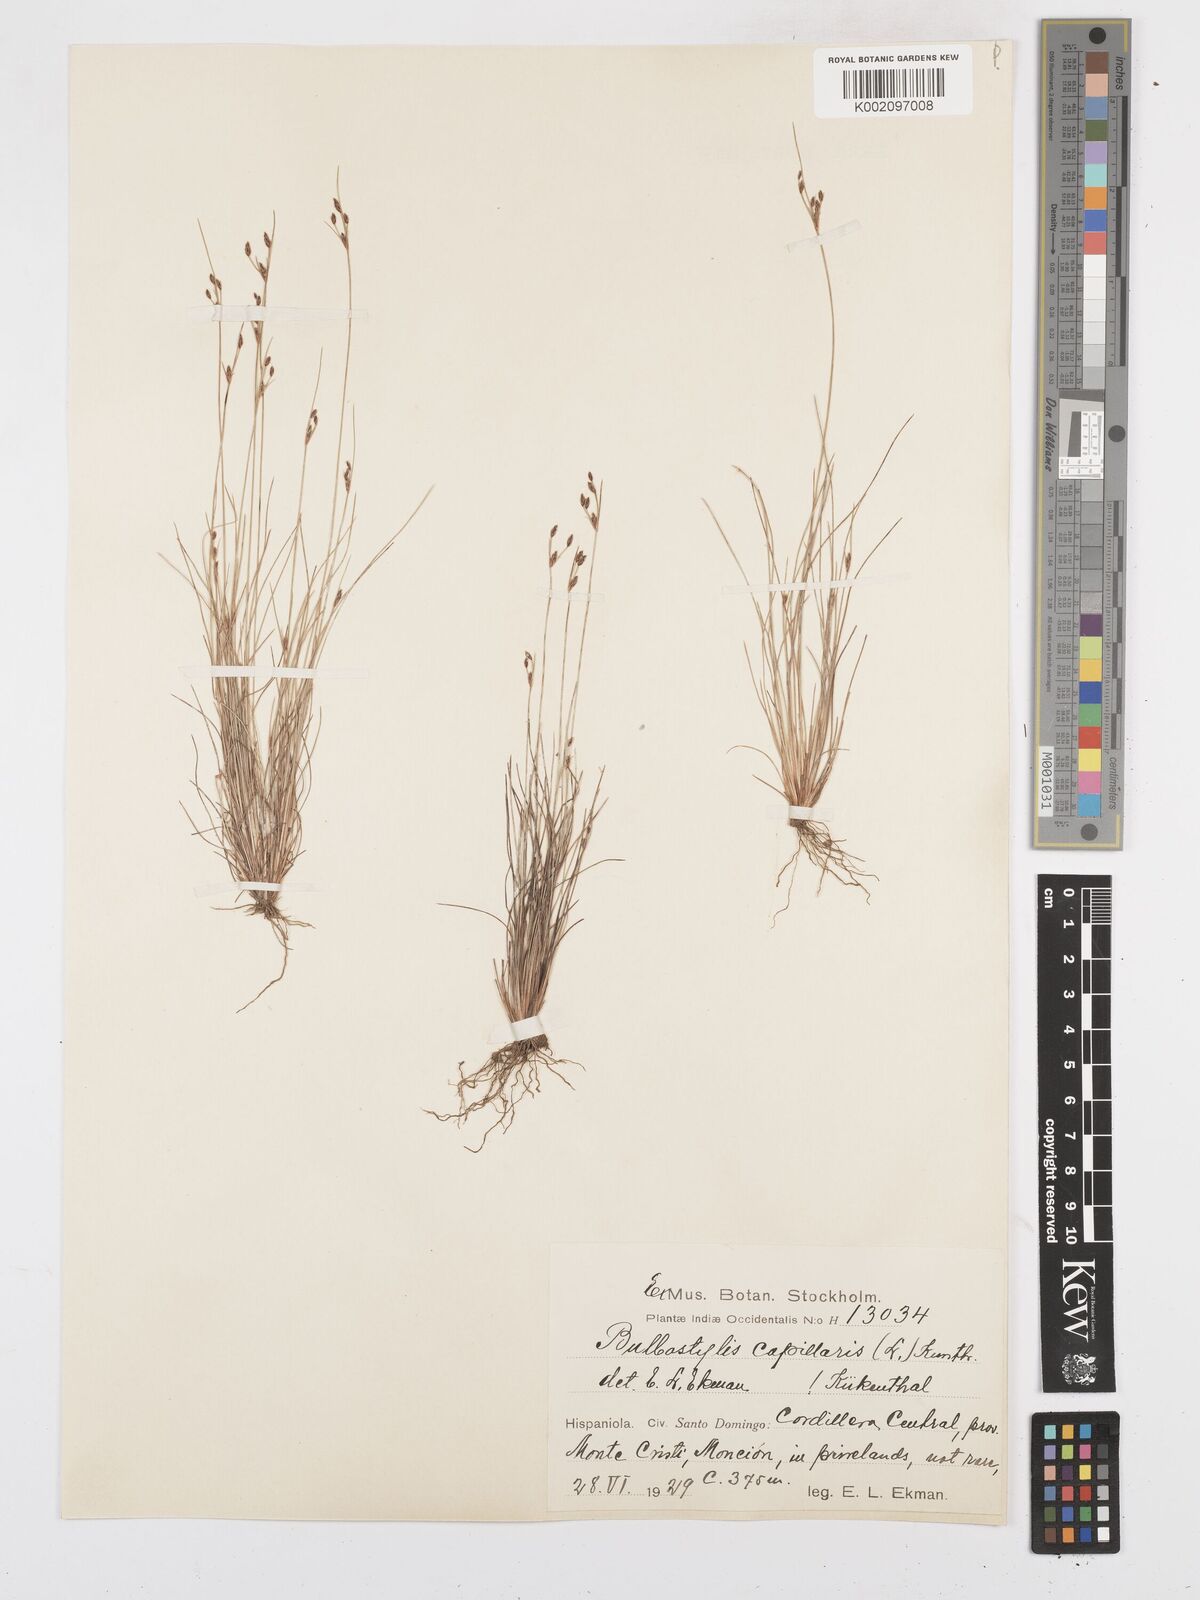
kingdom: Plantae
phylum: Tracheophyta
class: Liliopsida
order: Poales
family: Cyperaceae
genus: Bulbostylis
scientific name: Bulbostylis capillaris
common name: Densetuft hairsedge
